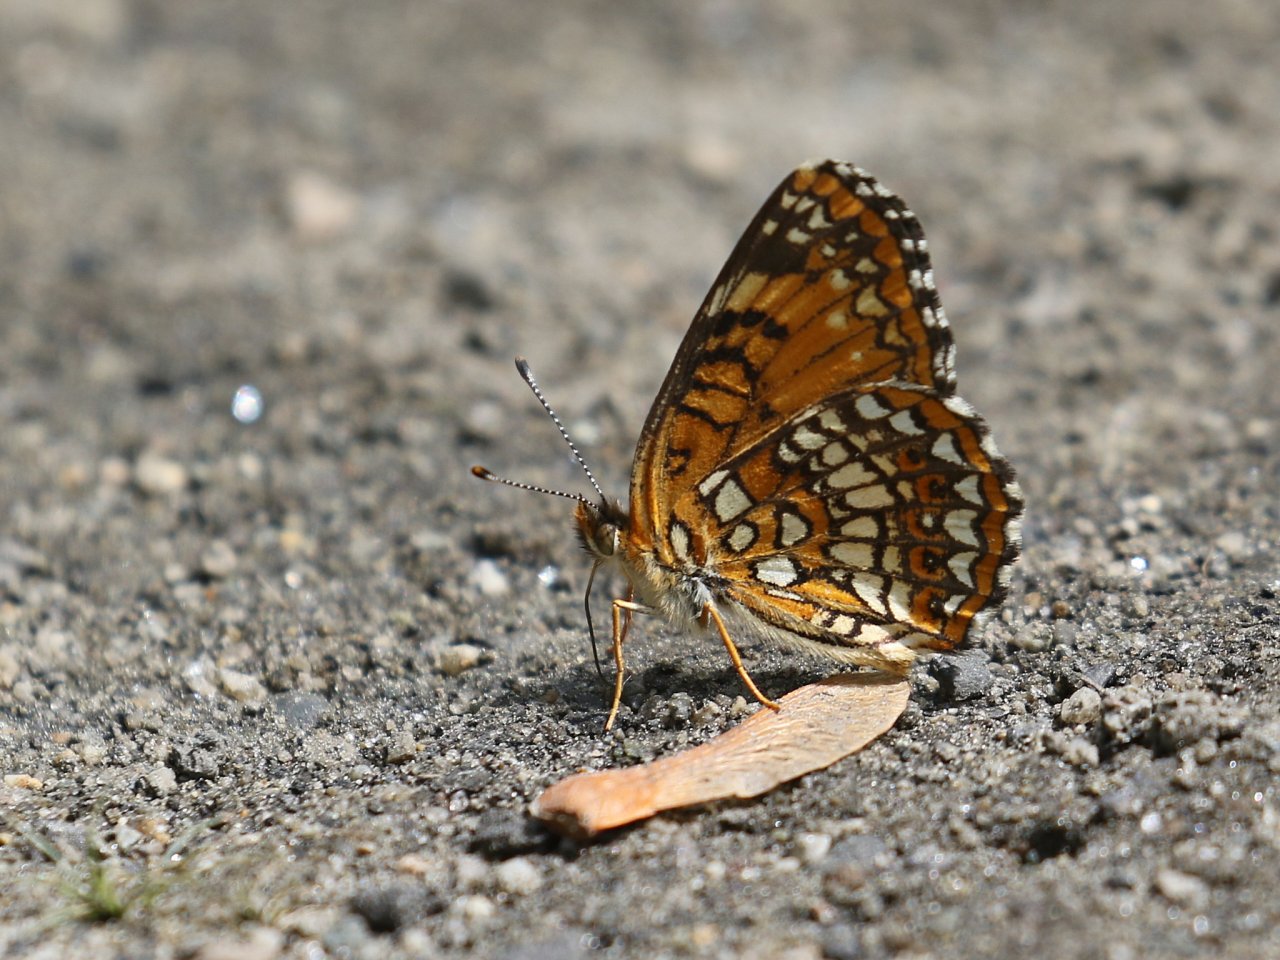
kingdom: Animalia
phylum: Arthropoda
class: Insecta
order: Lepidoptera
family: Nymphalidae
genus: Chlosyne
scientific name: Chlosyne harrisii
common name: Harris's Checkerspot
